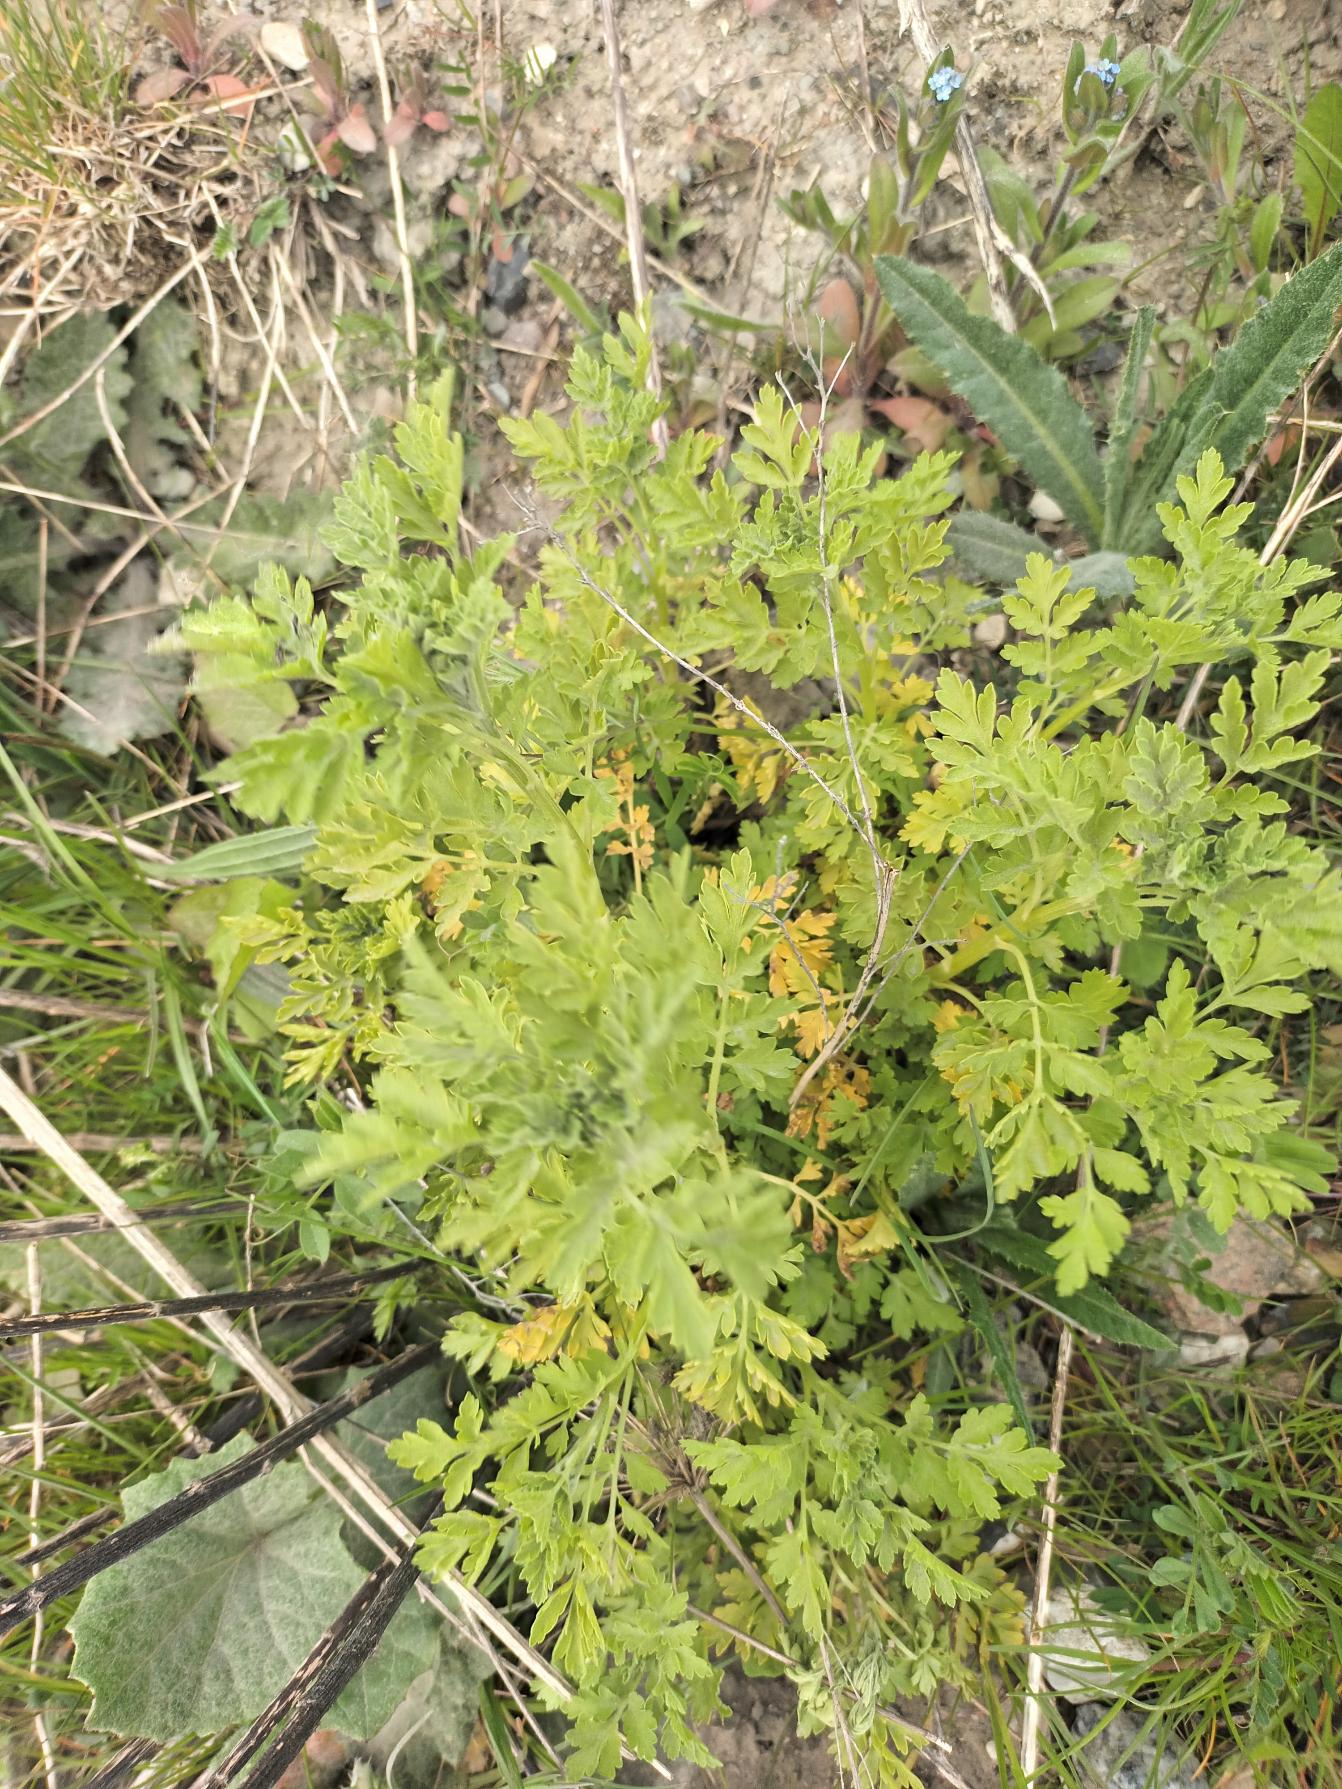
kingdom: Plantae
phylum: Tracheophyta
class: Magnoliopsida
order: Asterales
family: Asteraceae
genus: Tanacetum
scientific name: Tanacetum parthenium
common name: Matrem
